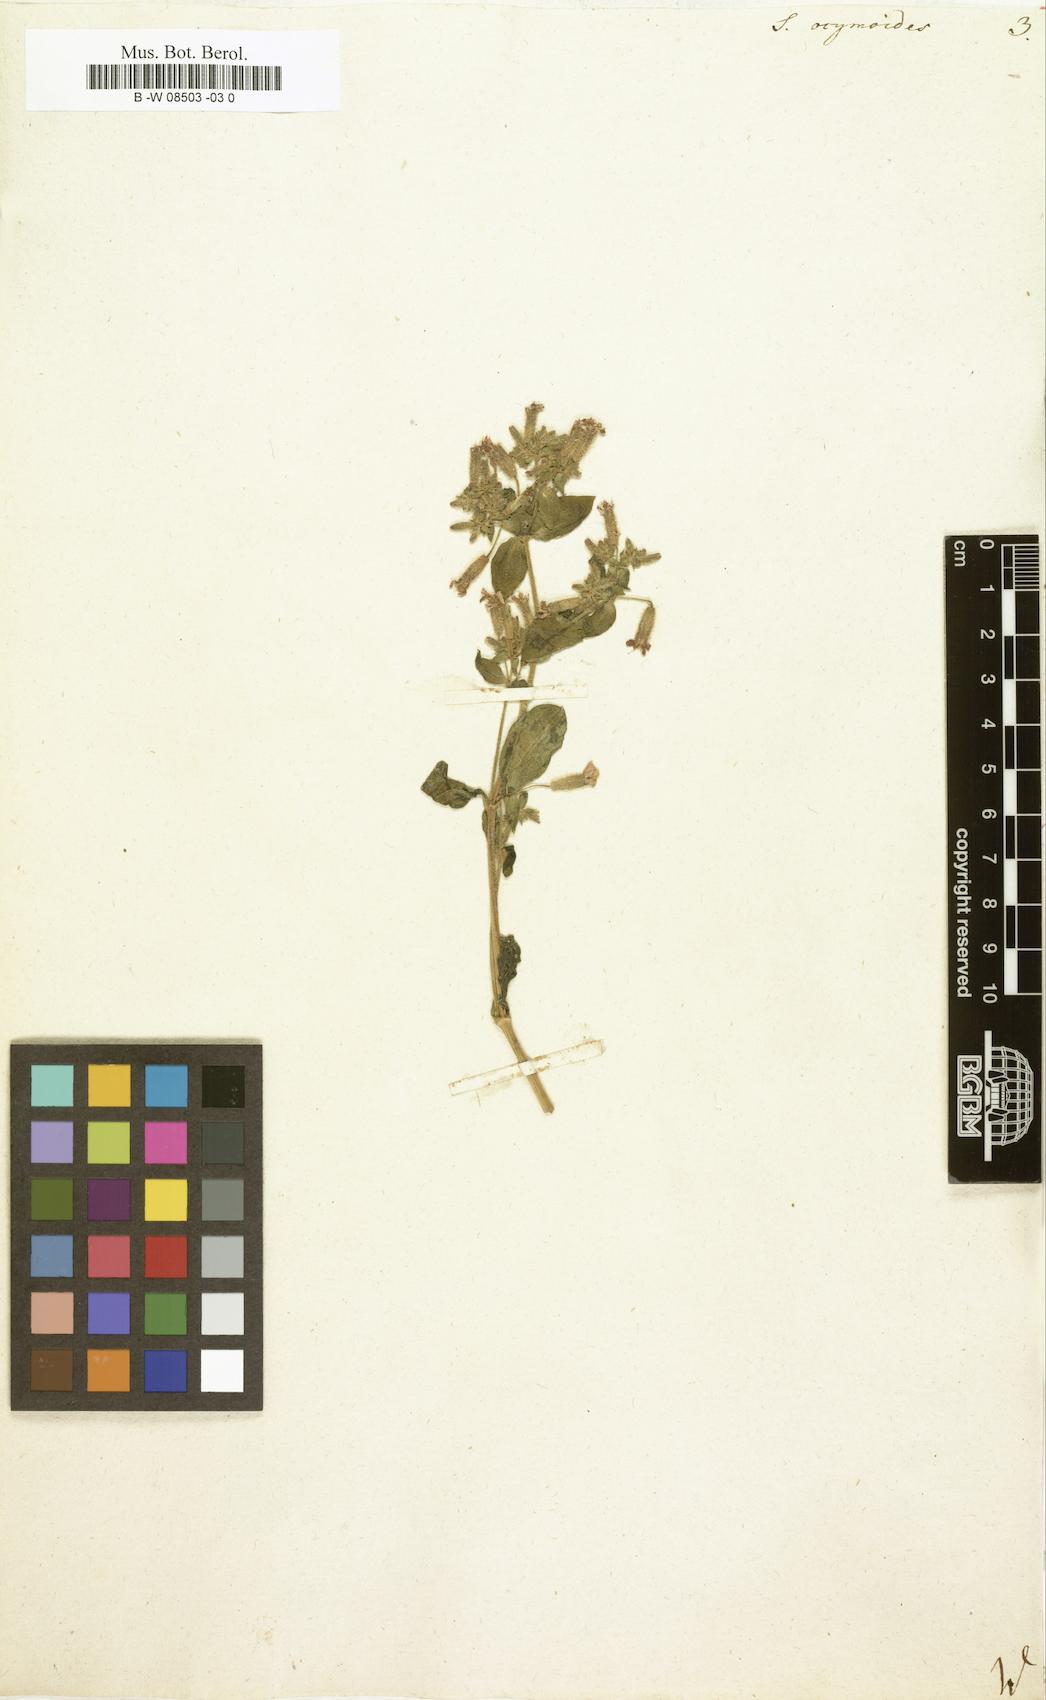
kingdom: Plantae
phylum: Tracheophyta
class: Magnoliopsida
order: Caryophyllales
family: Caryophyllaceae
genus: Saponaria
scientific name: Saponaria ocymoides
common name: Rock soapwort
